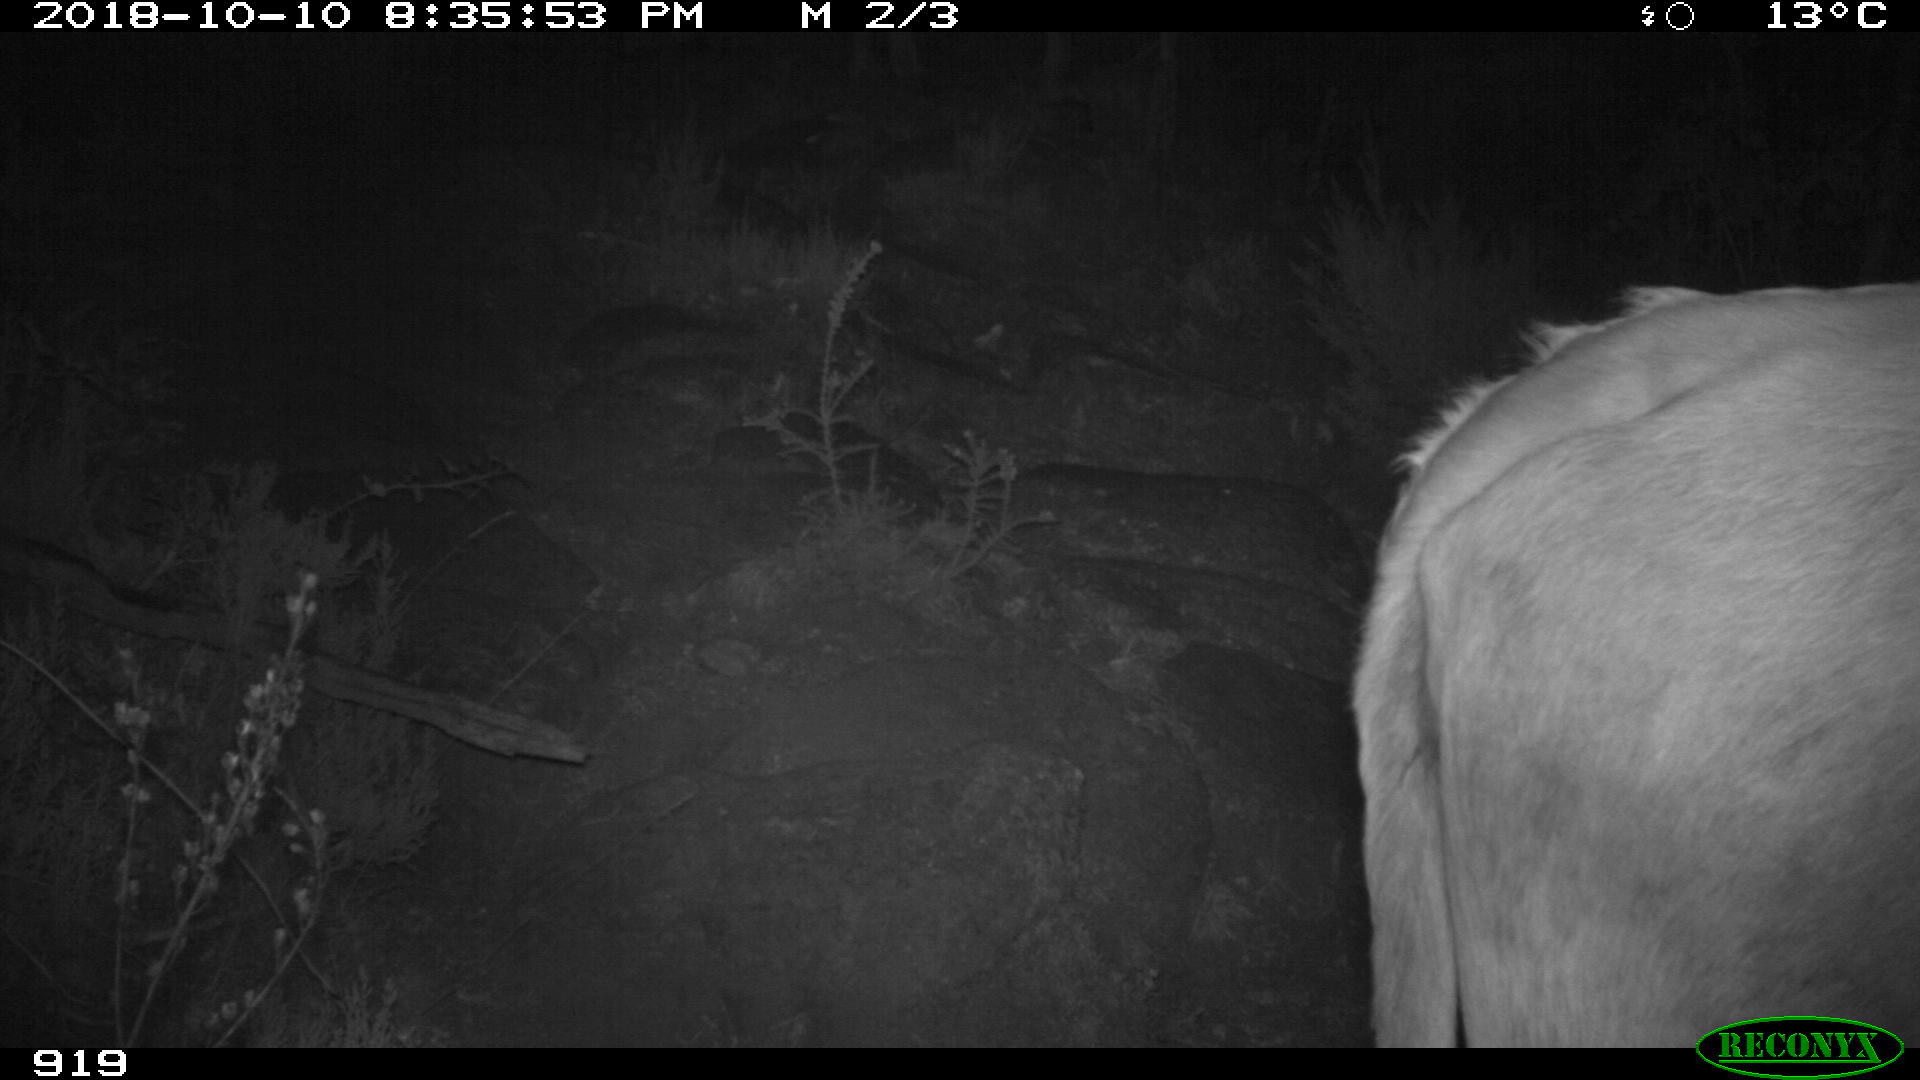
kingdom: Animalia
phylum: Chordata
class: Mammalia
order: Artiodactyla
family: Bovidae
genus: Bos
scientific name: Bos taurus
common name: Domesticated cattle
